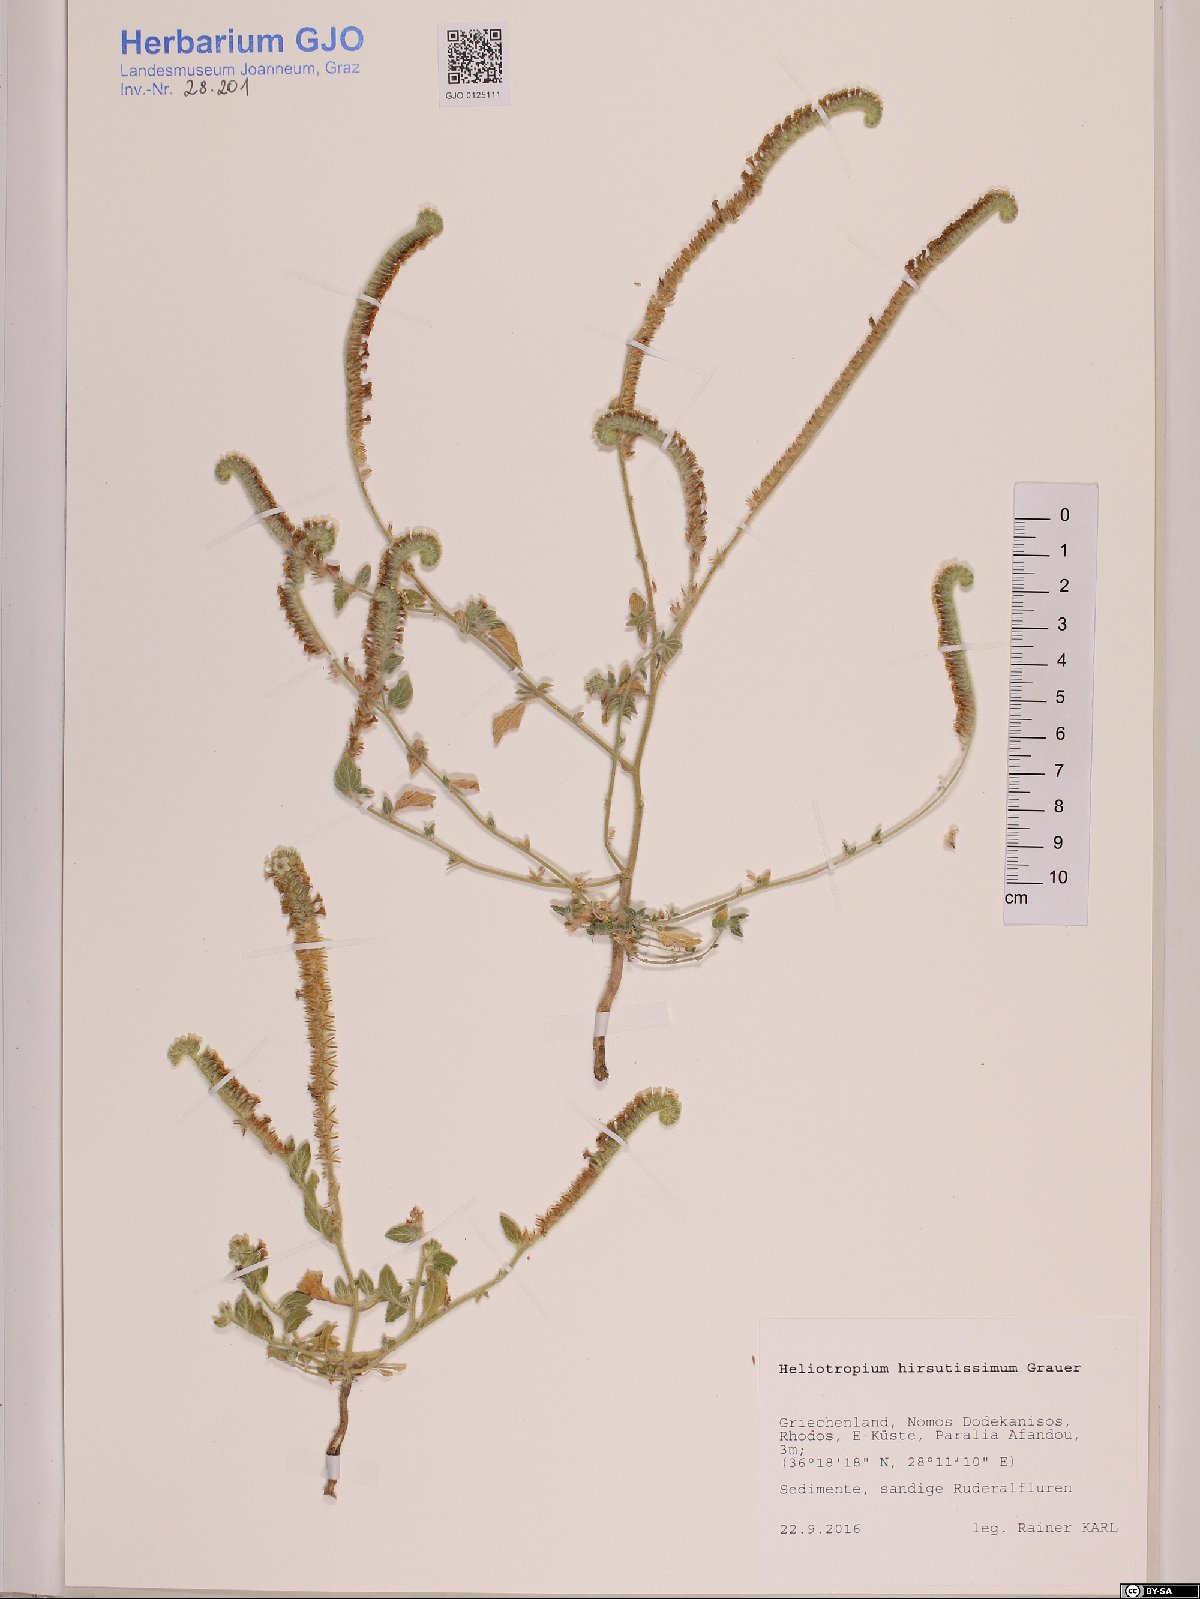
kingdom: Plantae
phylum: Tracheophyta
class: Magnoliopsida
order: Boraginales
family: Heliotropiaceae
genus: Heliotropium
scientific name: Heliotropium hirsutissimum
